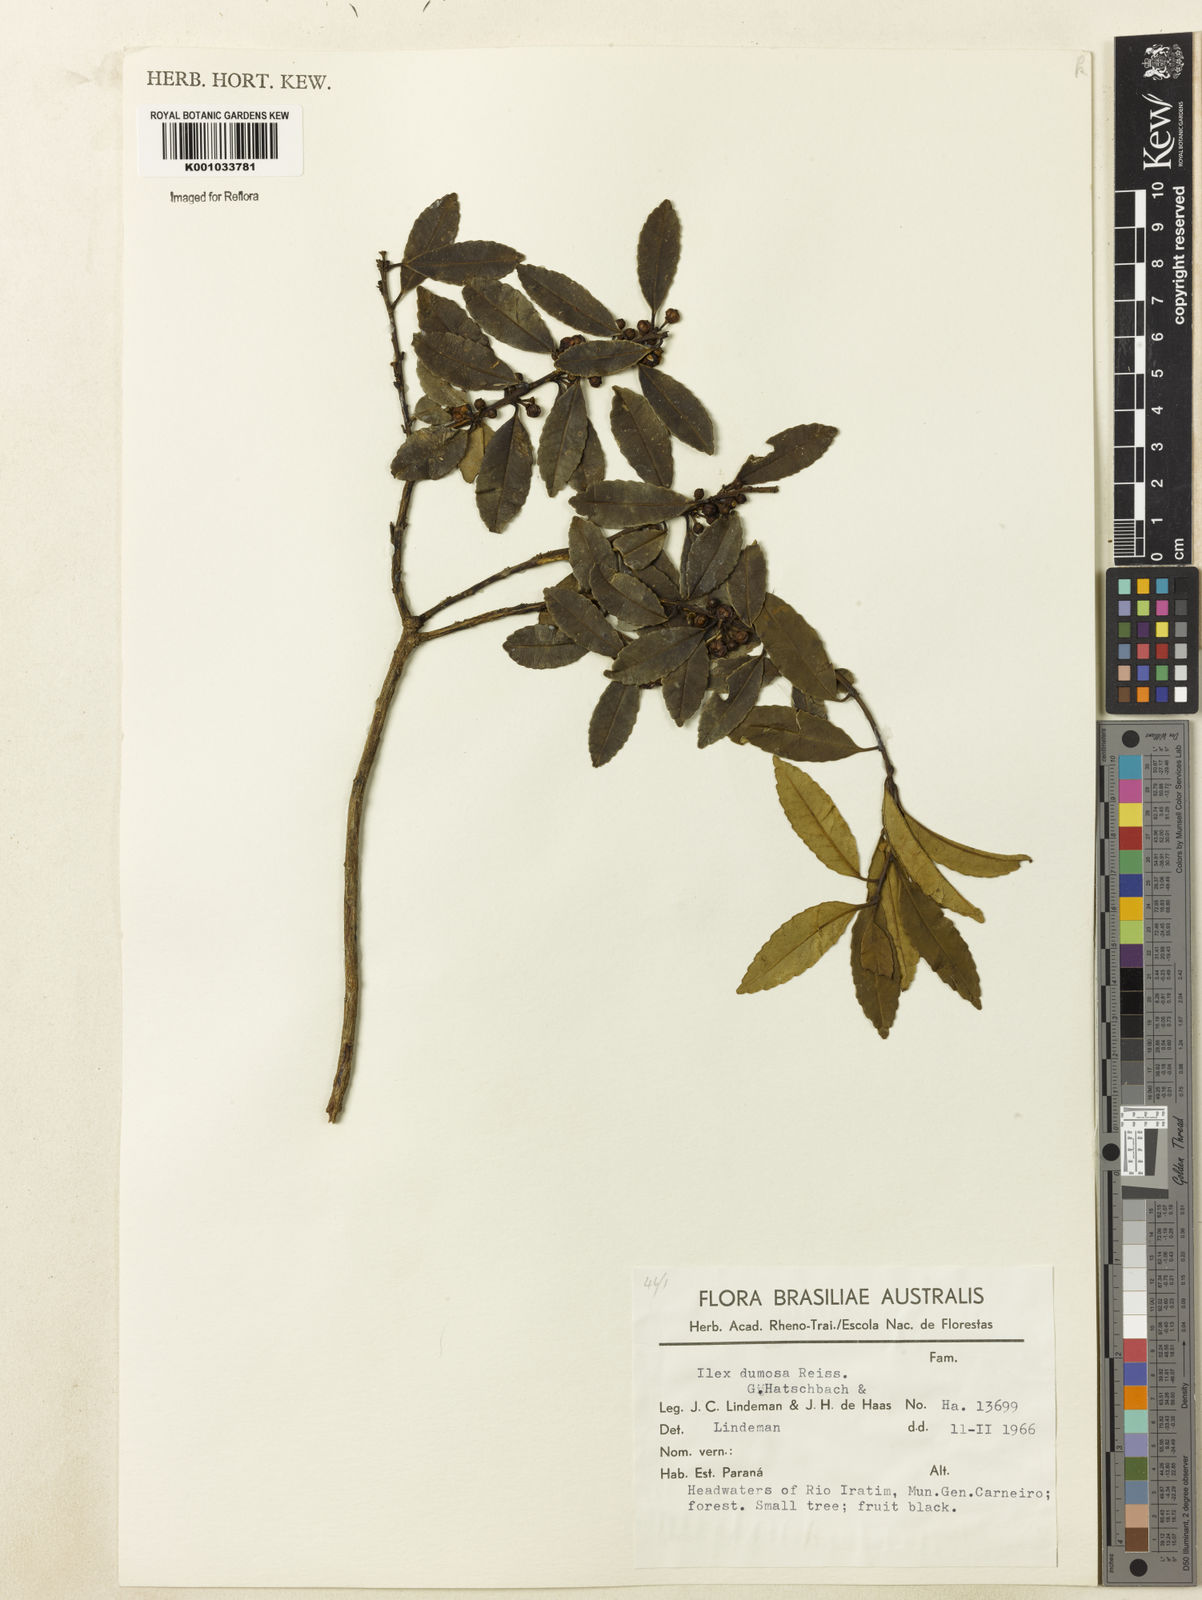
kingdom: Plantae
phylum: Tracheophyta
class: Magnoliopsida
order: Aquifoliales
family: Aquifoliaceae
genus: Ilex
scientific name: Ilex dumosa
